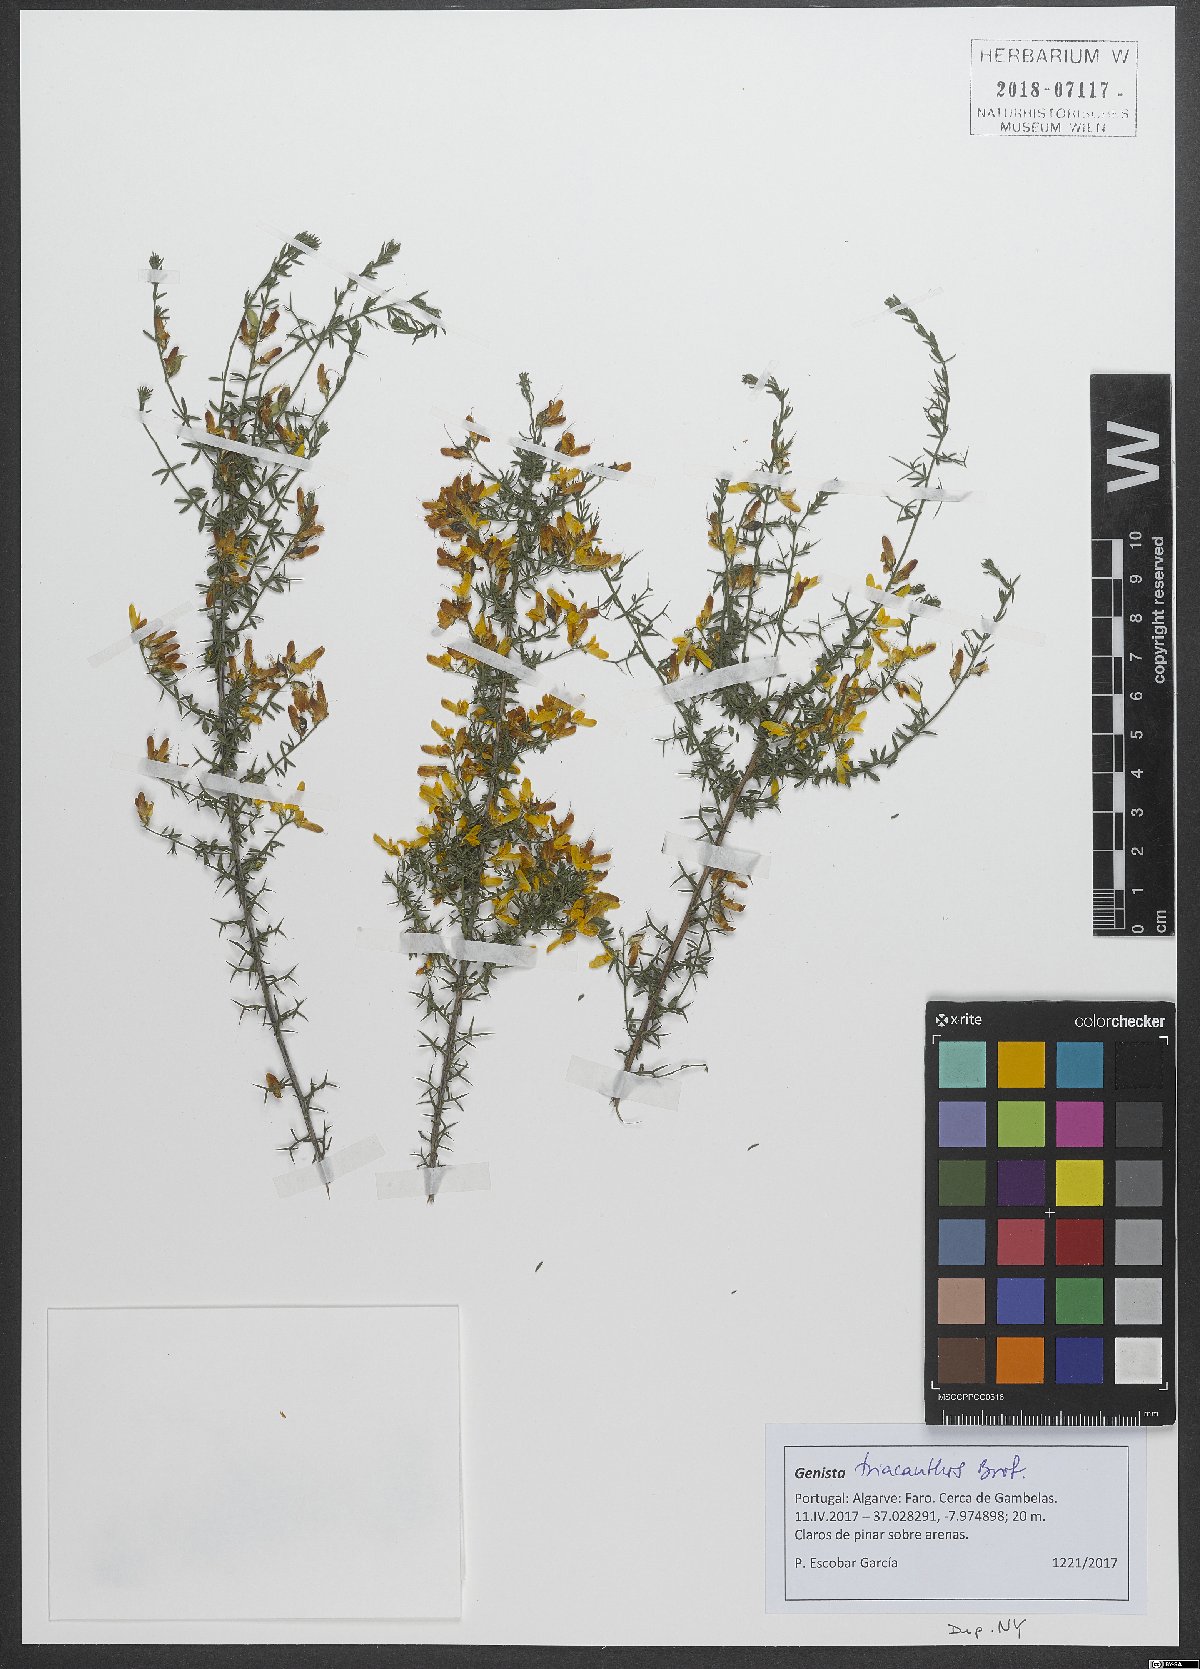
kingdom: Plantae
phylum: Tracheophyta
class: Magnoliopsida
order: Fabales
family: Fabaceae
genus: Genista
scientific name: Genista triacanthos
